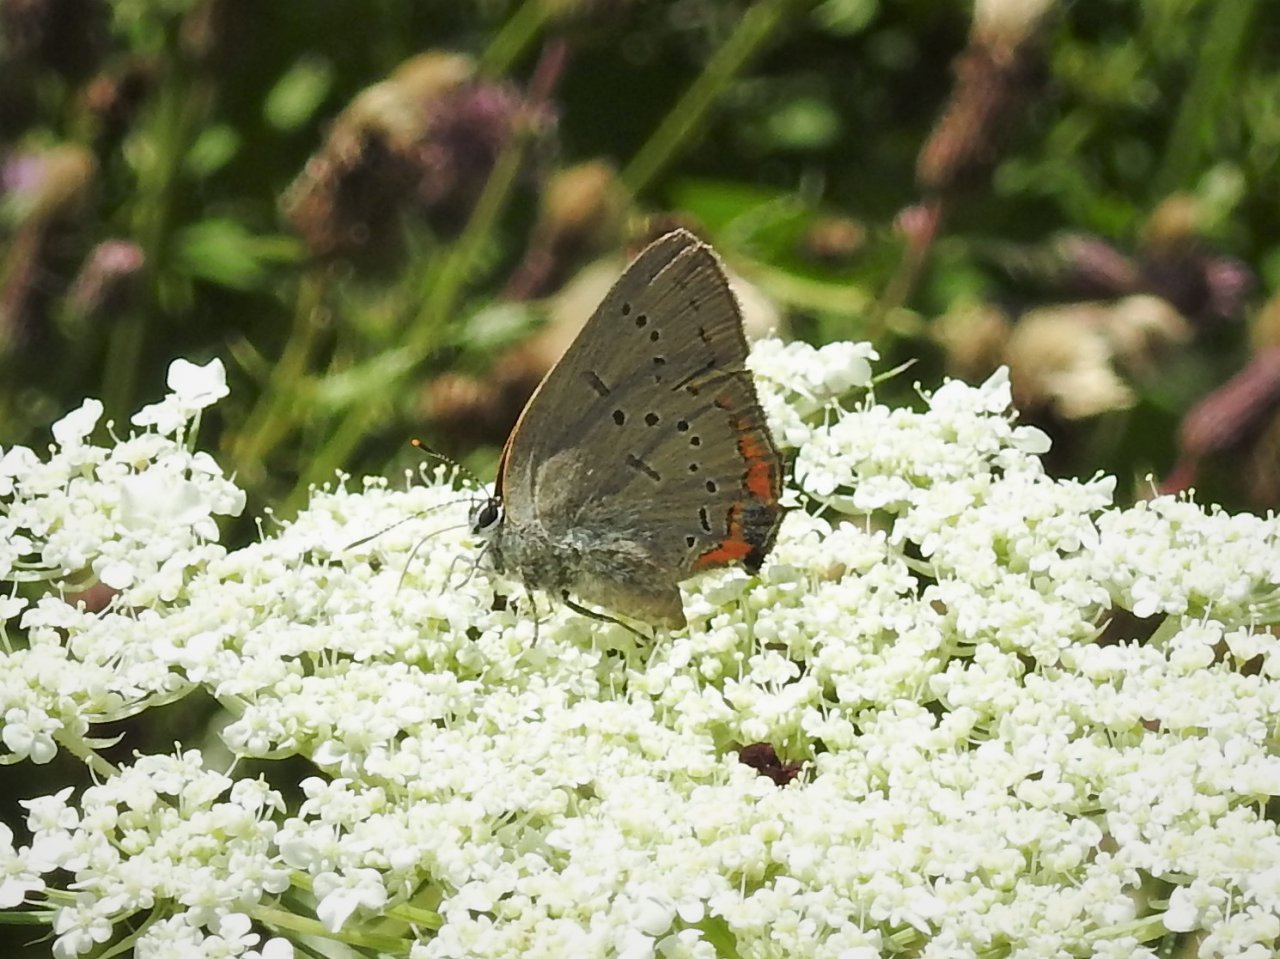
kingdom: Animalia
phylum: Arthropoda
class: Insecta
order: Lepidoptera
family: Lycaenidae
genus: Strymon
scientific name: Strymon acadica
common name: Acadian Hairstreak
